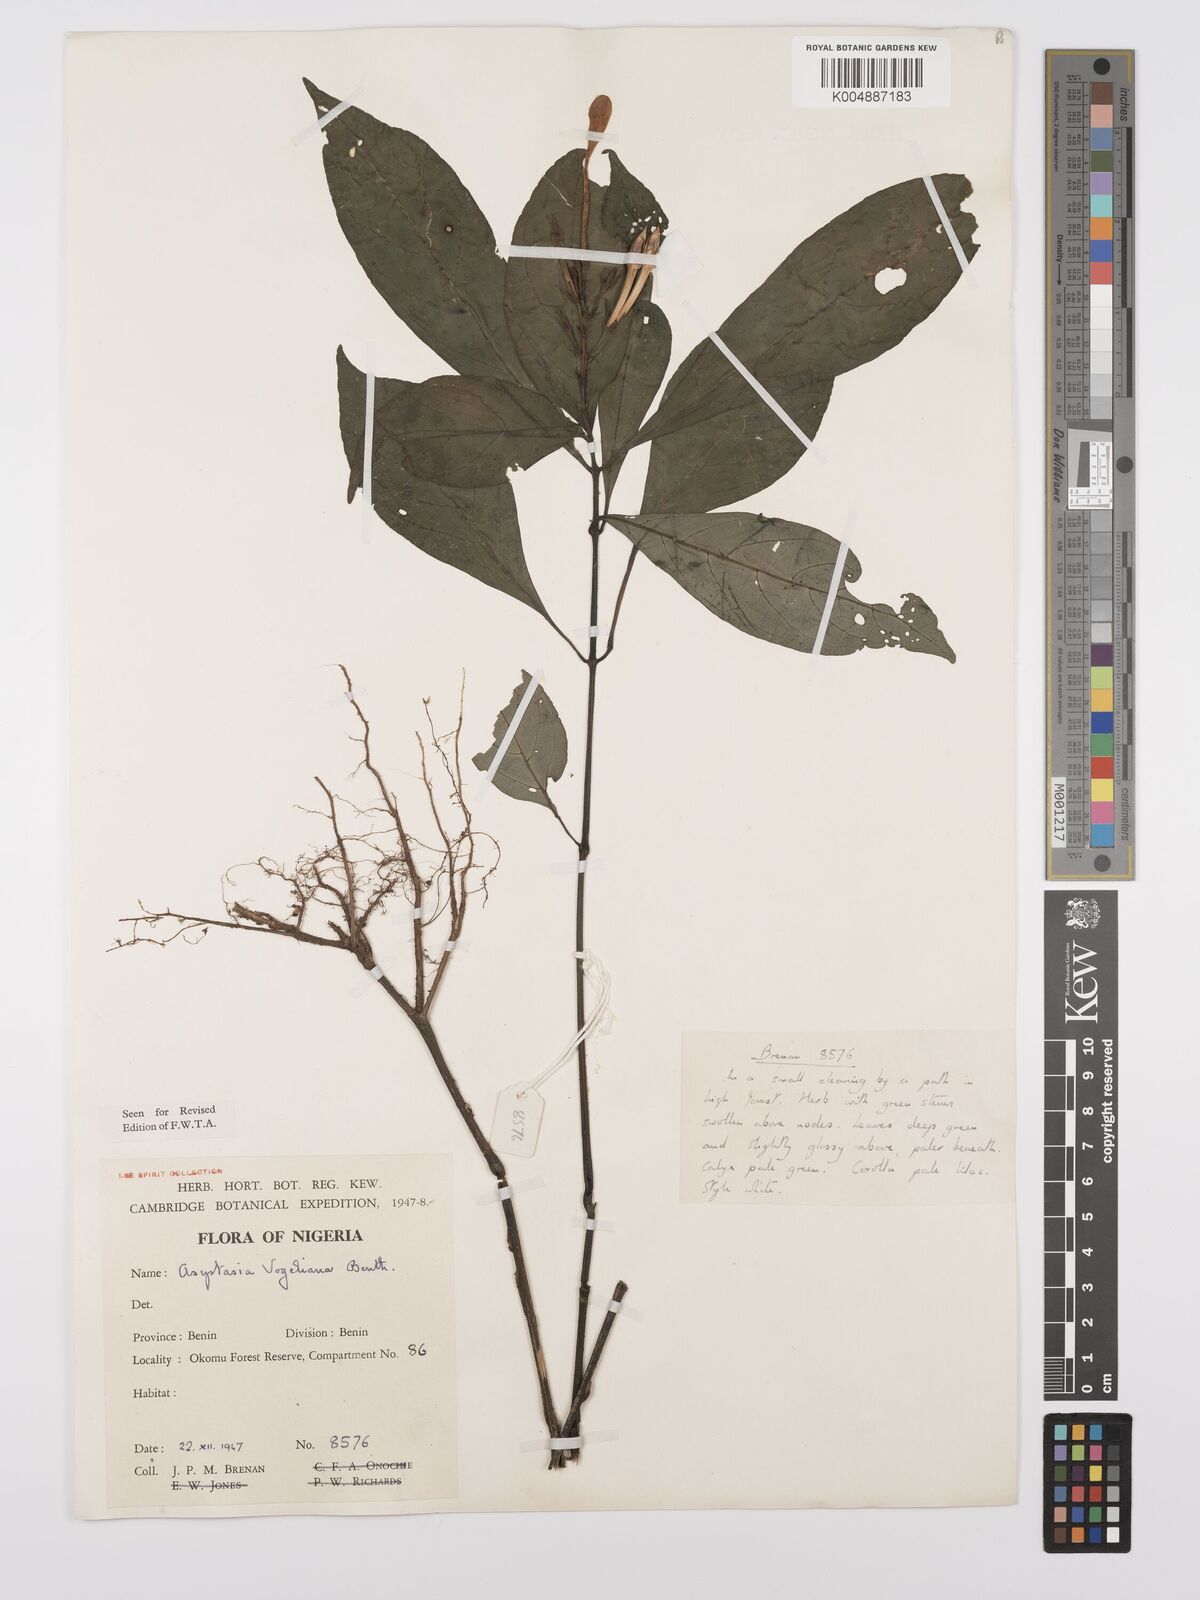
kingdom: Plantae
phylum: Tracheophyta
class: Magnoliopsida
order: Lamiales
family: Acanthaceae
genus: Asystasia
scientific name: Asystasia vogeliana
